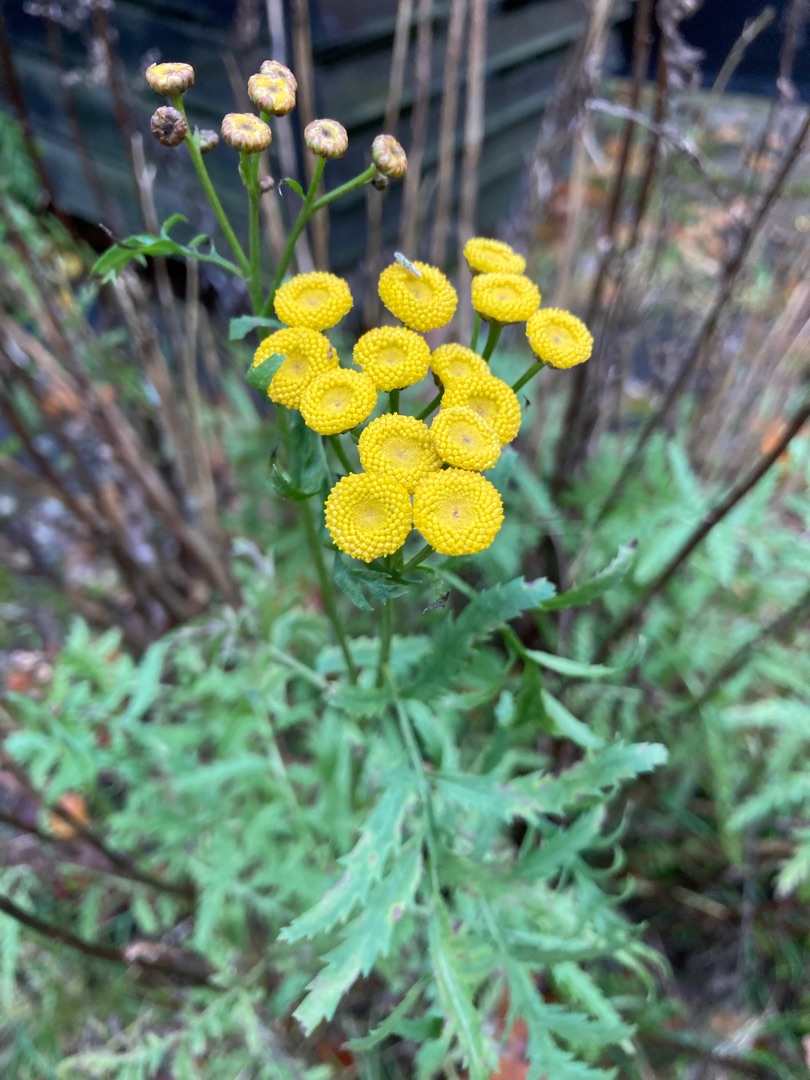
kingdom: Plantae
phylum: Tracheophyta
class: Magnoliopsida
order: Asterales
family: Asteraceae
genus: Tanacetum
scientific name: Tanacetum vulgare
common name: Rejnfan
